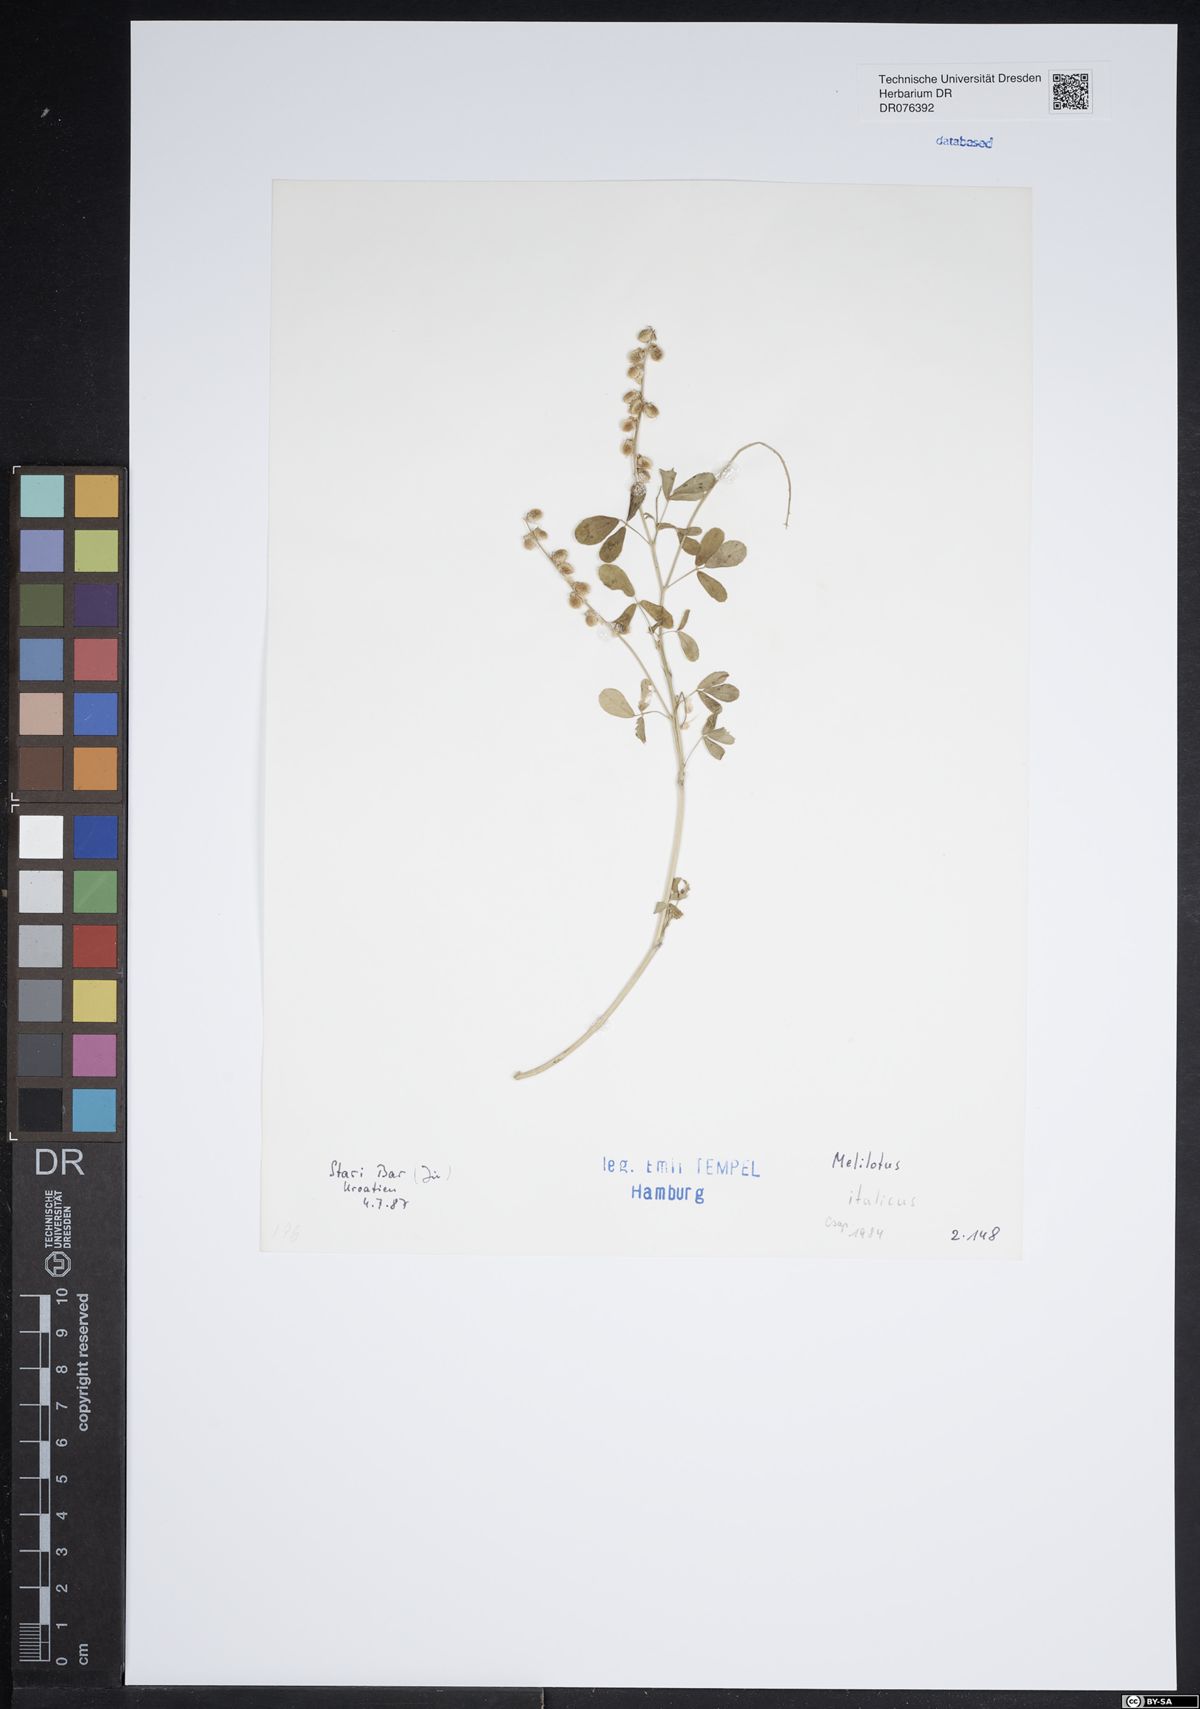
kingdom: Plantae
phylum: Tracheophyta
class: Magnoliopsida
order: Fabales
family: Fabaceae
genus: Melilotus
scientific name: Melilotus italicus
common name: Italian melilot
